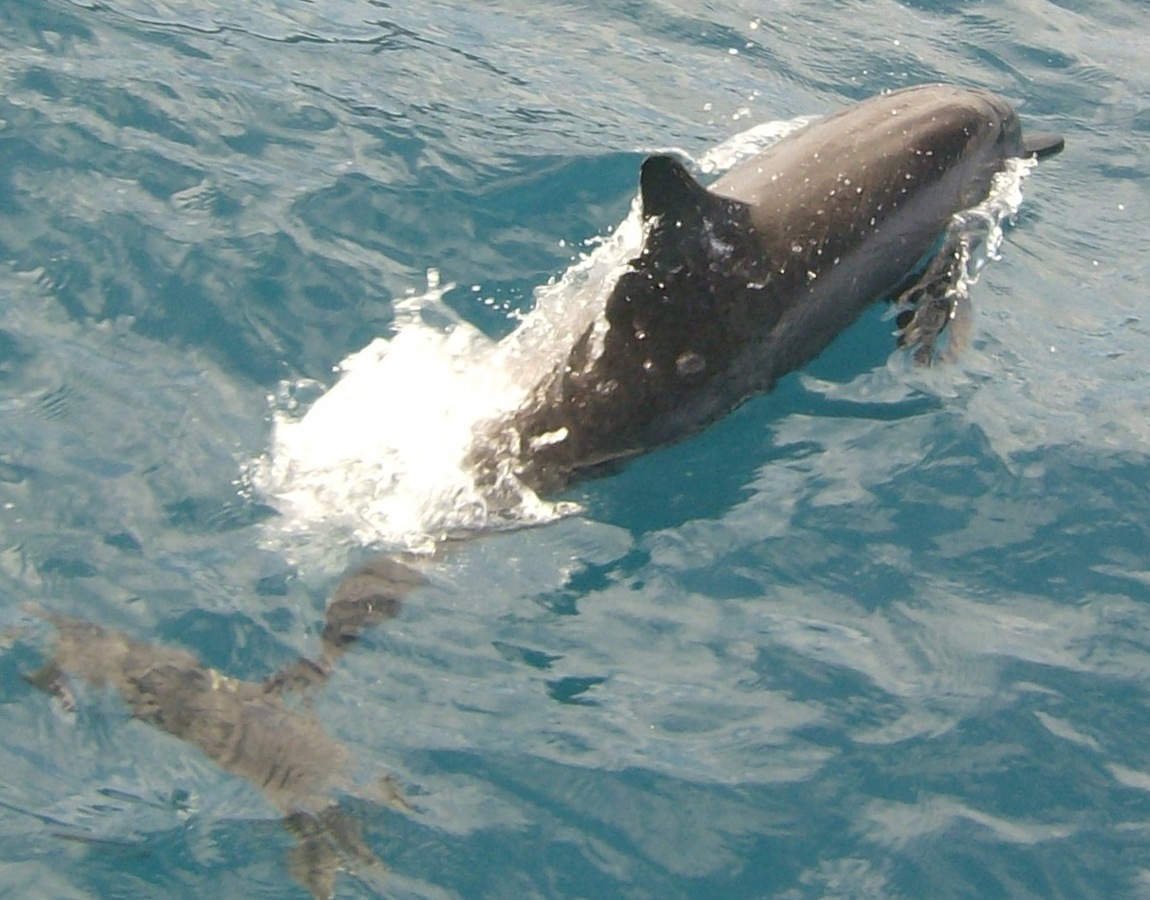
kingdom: Animalia
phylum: Chordata
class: Mammalia
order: Cetacea
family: Delphinidae
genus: Stenella
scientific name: Stenella longirostris
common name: Spinner Dolphin
